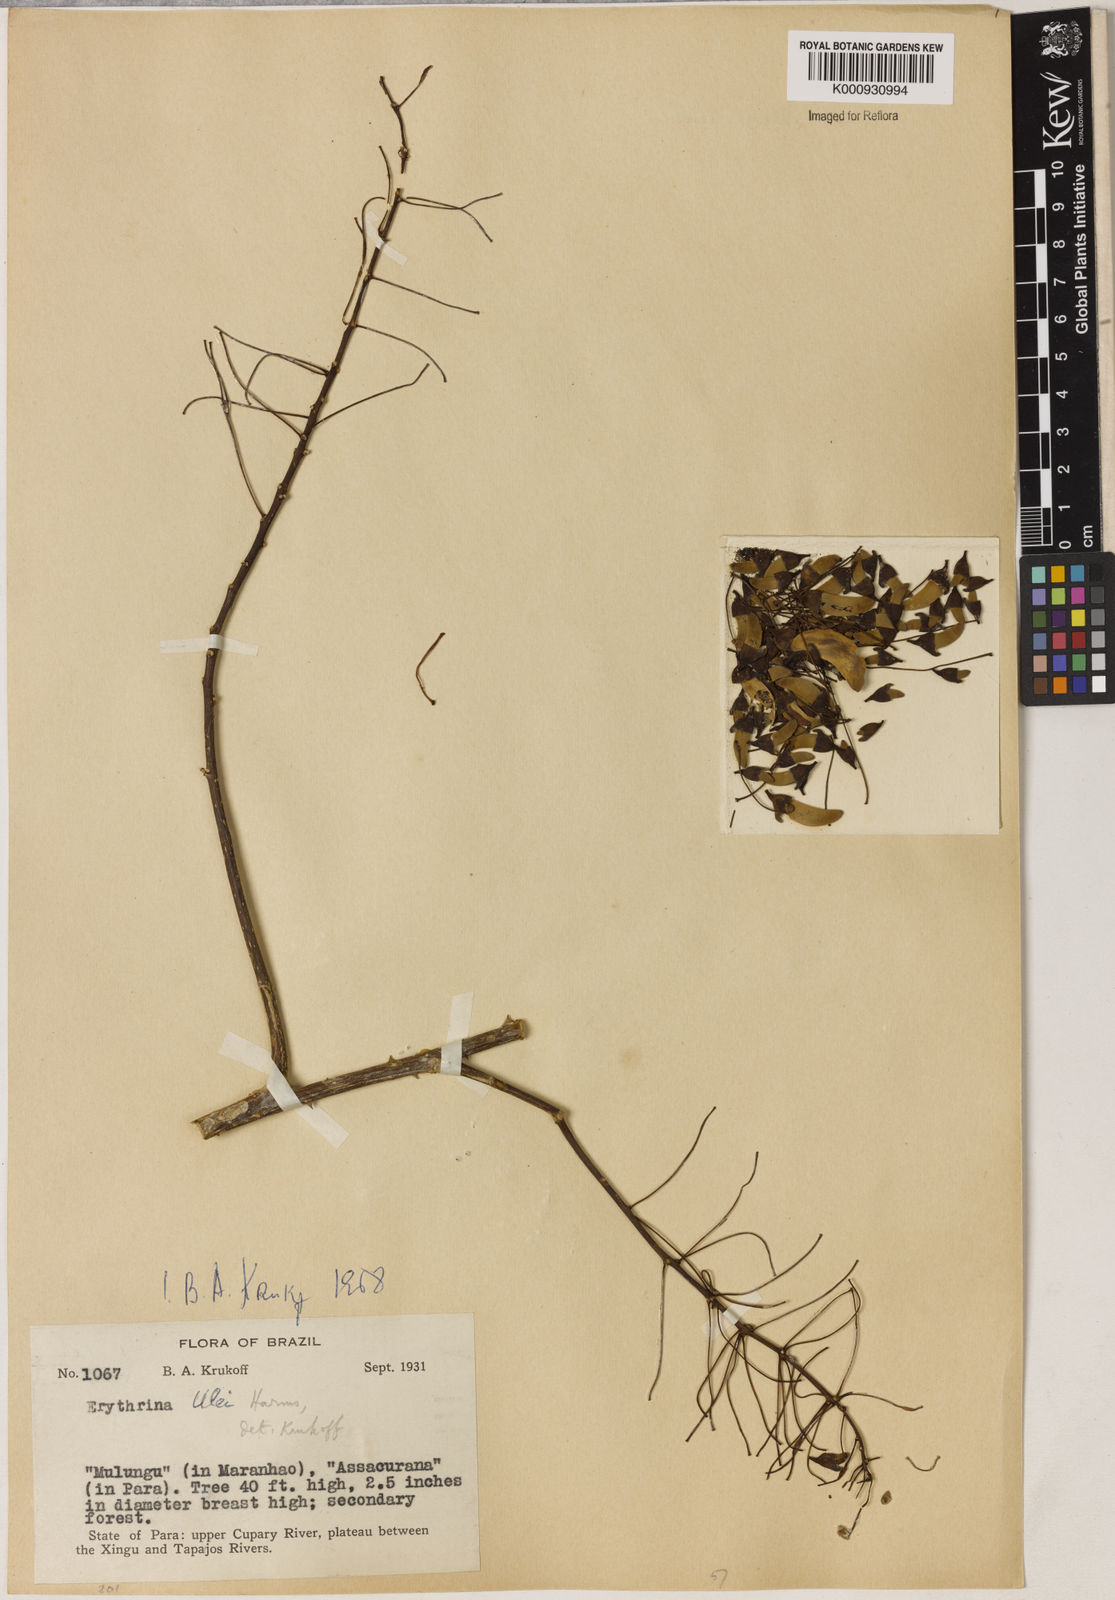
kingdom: Plantae
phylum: Tracheophyta
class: Magnoliopsida
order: Fabales
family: Fabaceae
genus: Erythrina
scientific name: Erythrina ulei
